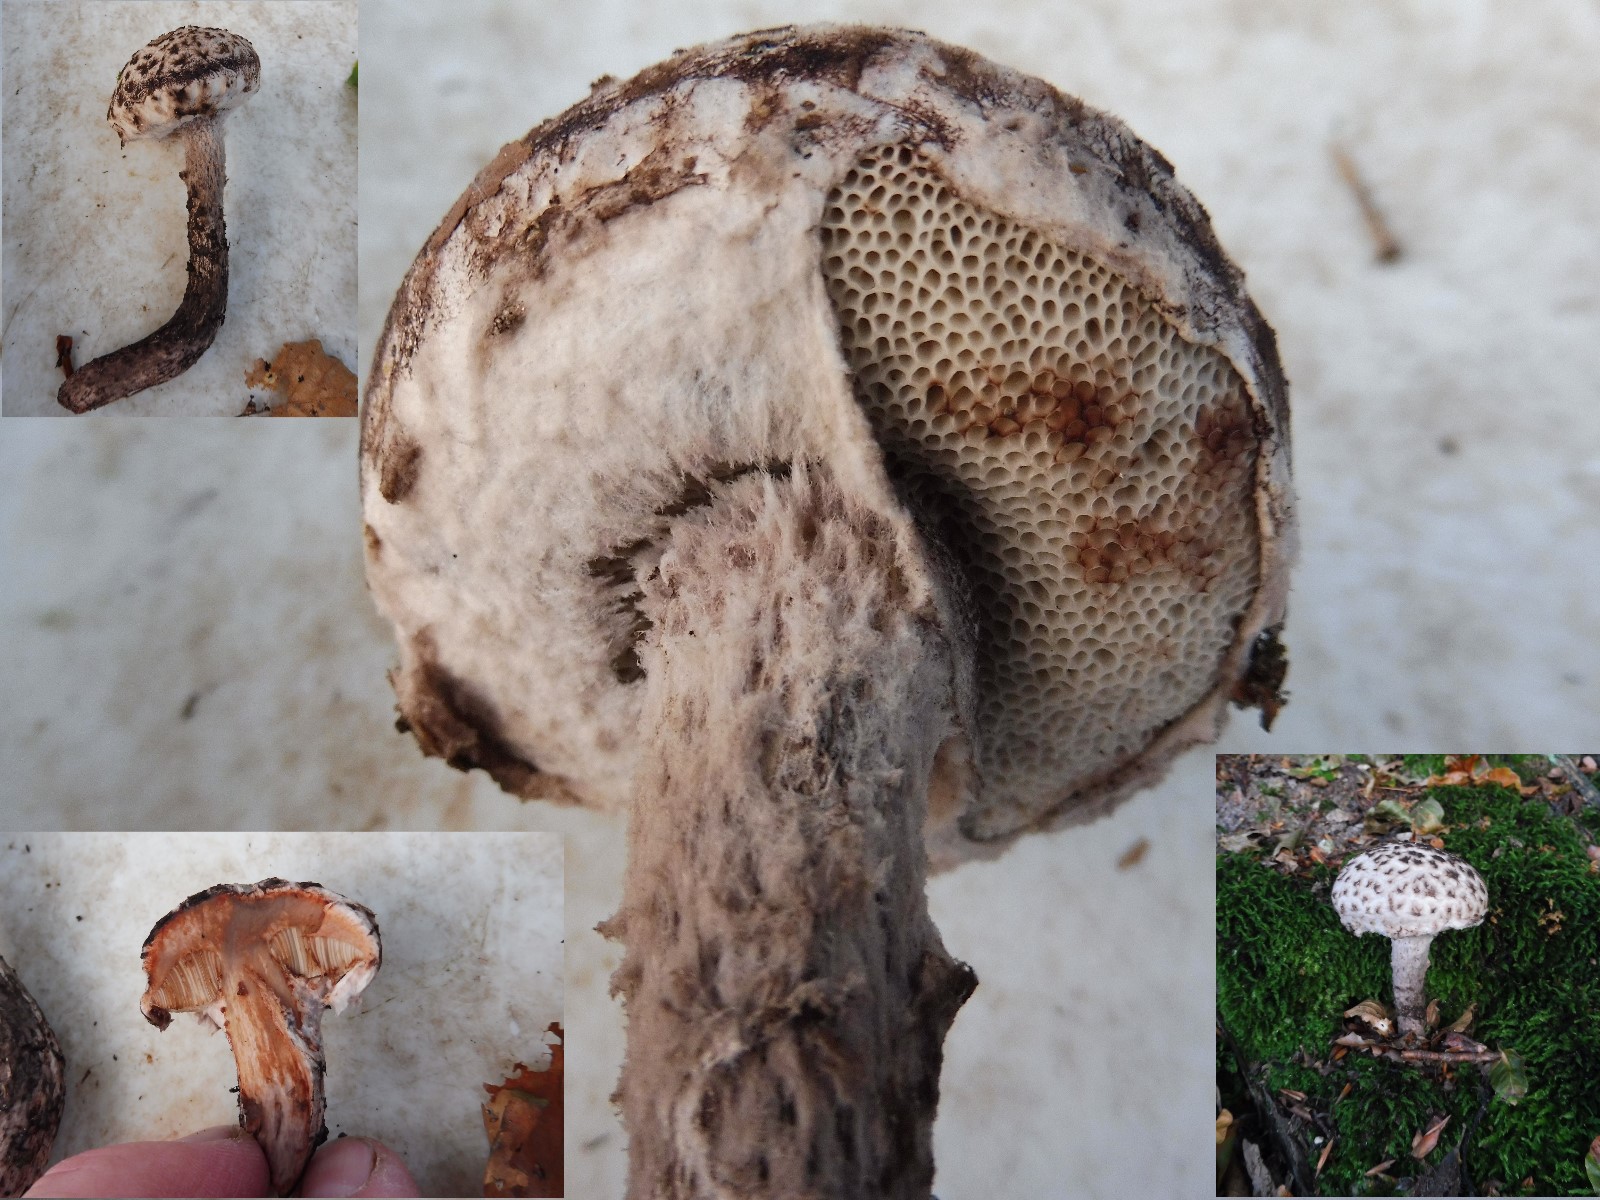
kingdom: Fungi
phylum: Basidiomycota
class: Agaricomycetes
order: Boletales
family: Boletaceae
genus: Strobilomyces
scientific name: Strobilomyces strobilaceus
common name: koglerørhat
